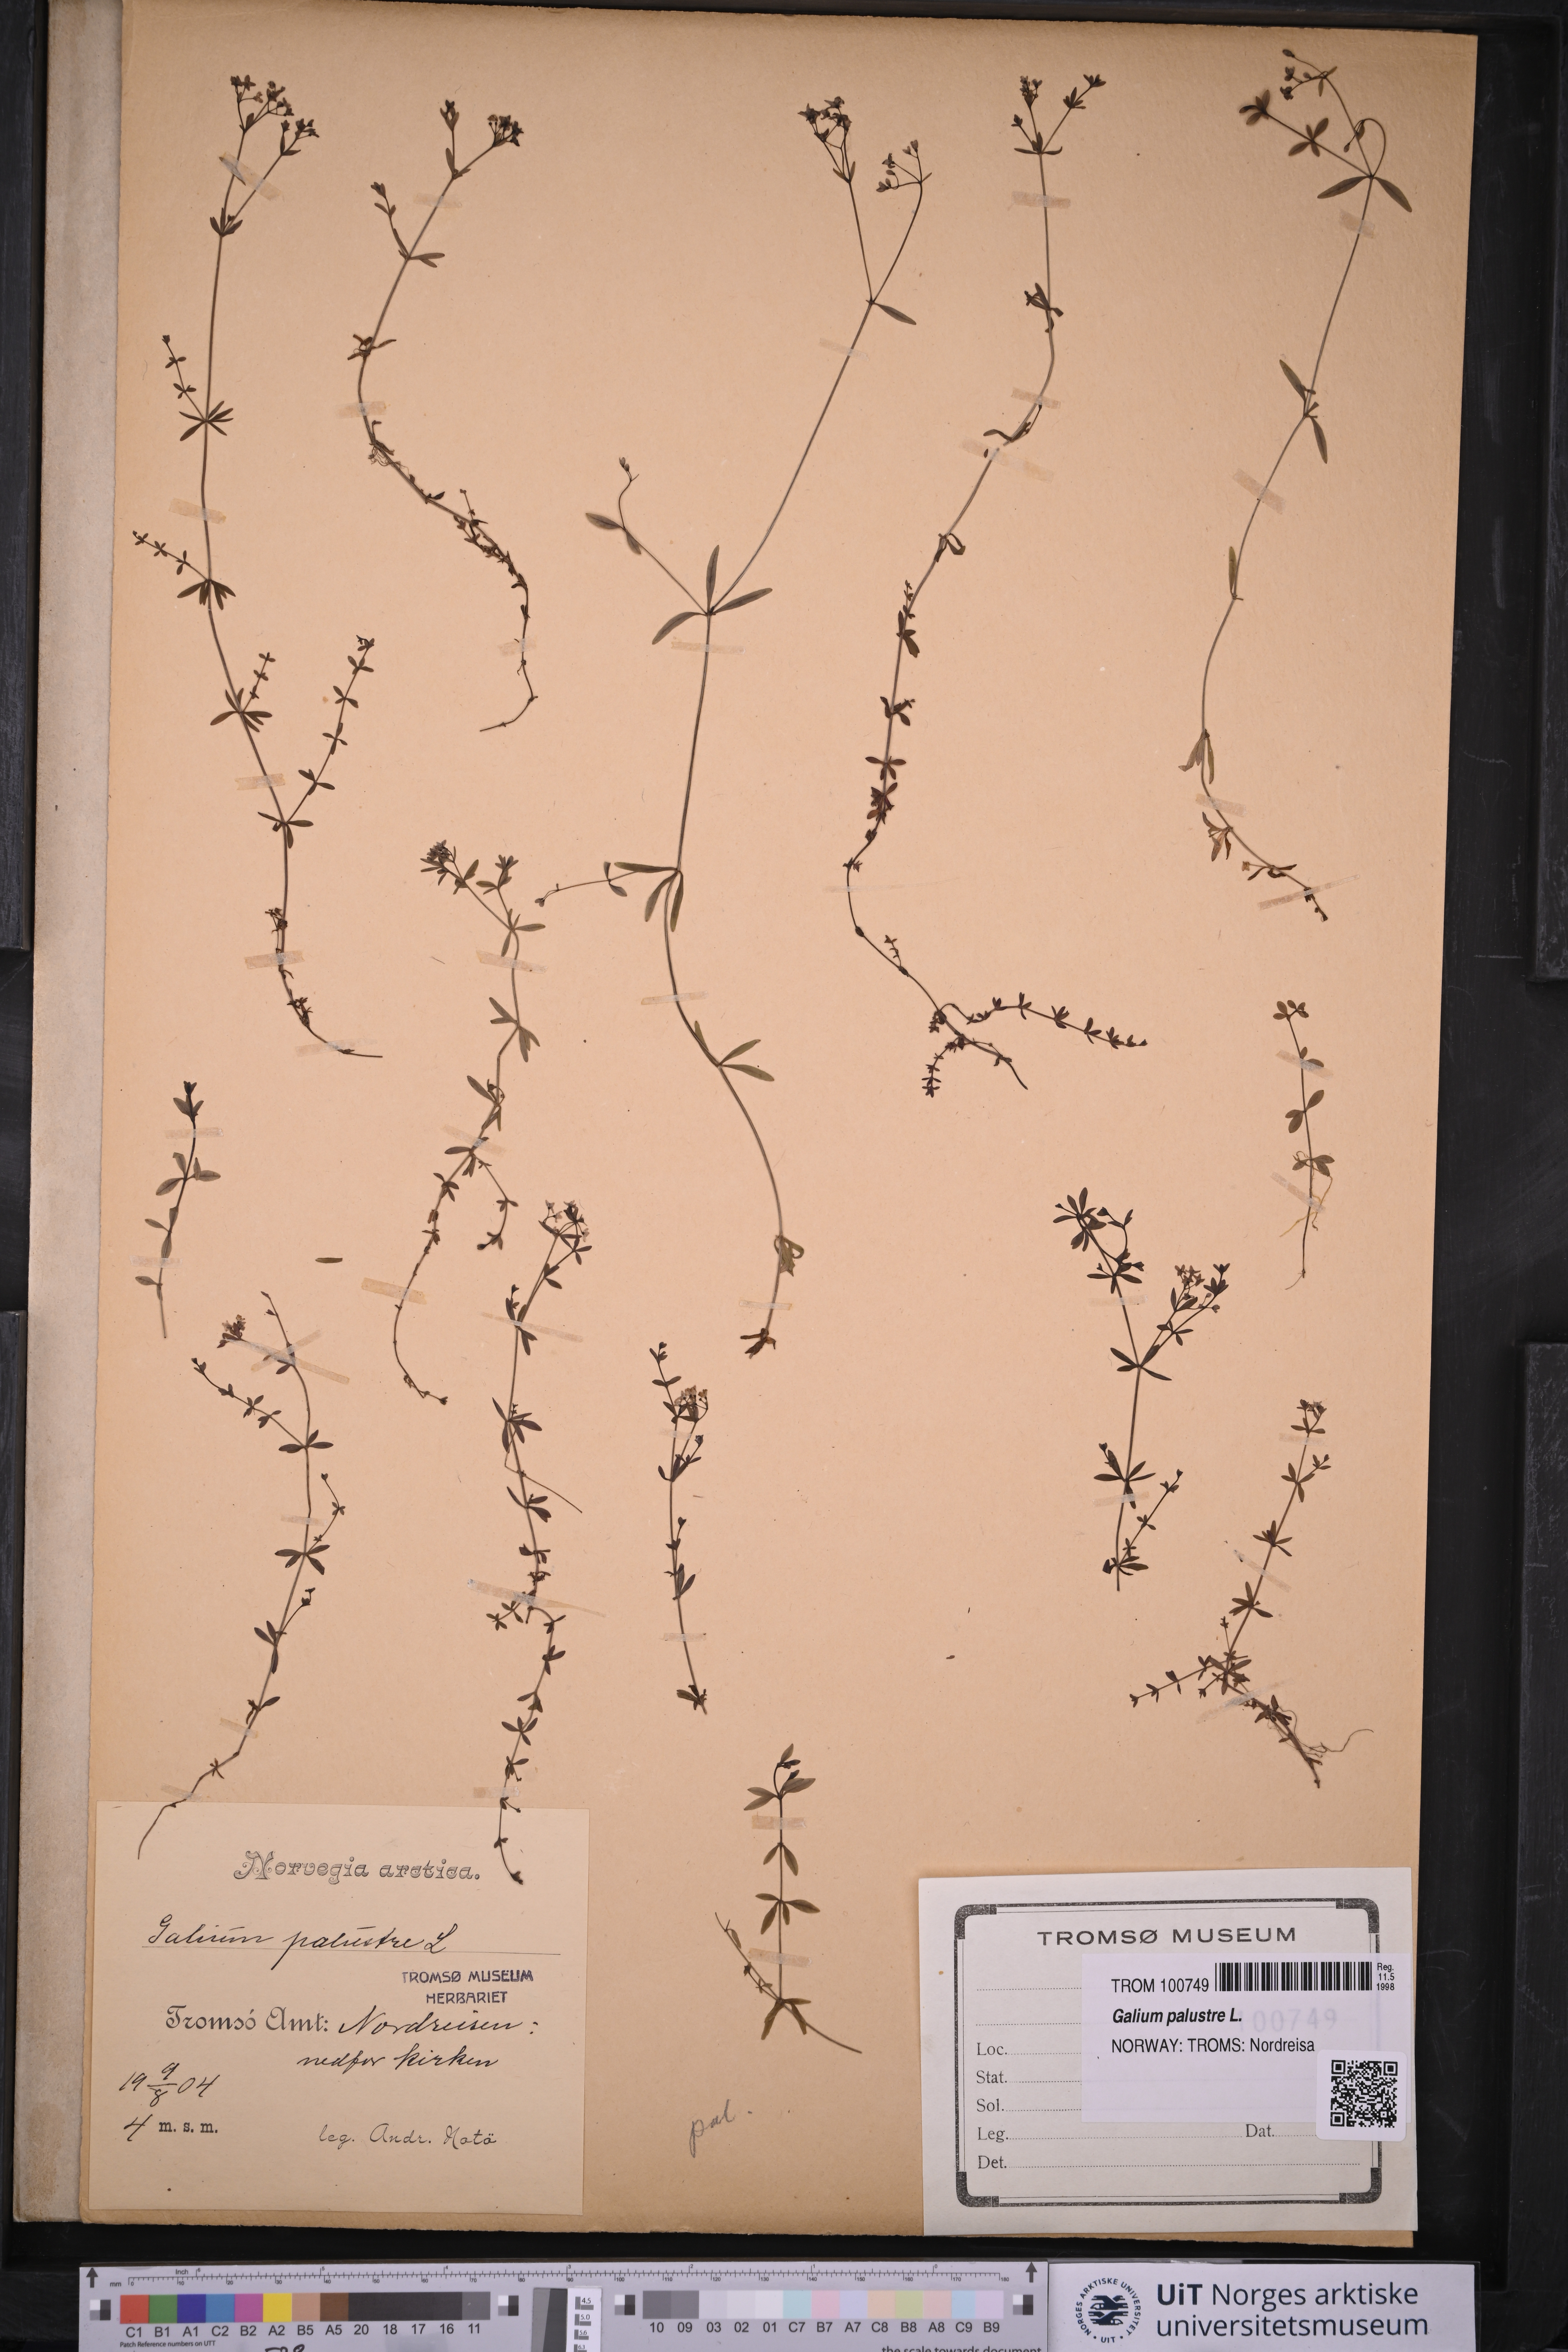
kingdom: Plantae
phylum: Tracheophyta
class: Magnoliopsida
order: Gentianales
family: Rubiaceae
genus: Galium
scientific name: Galium palustre
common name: Common marsh-bedstraw
